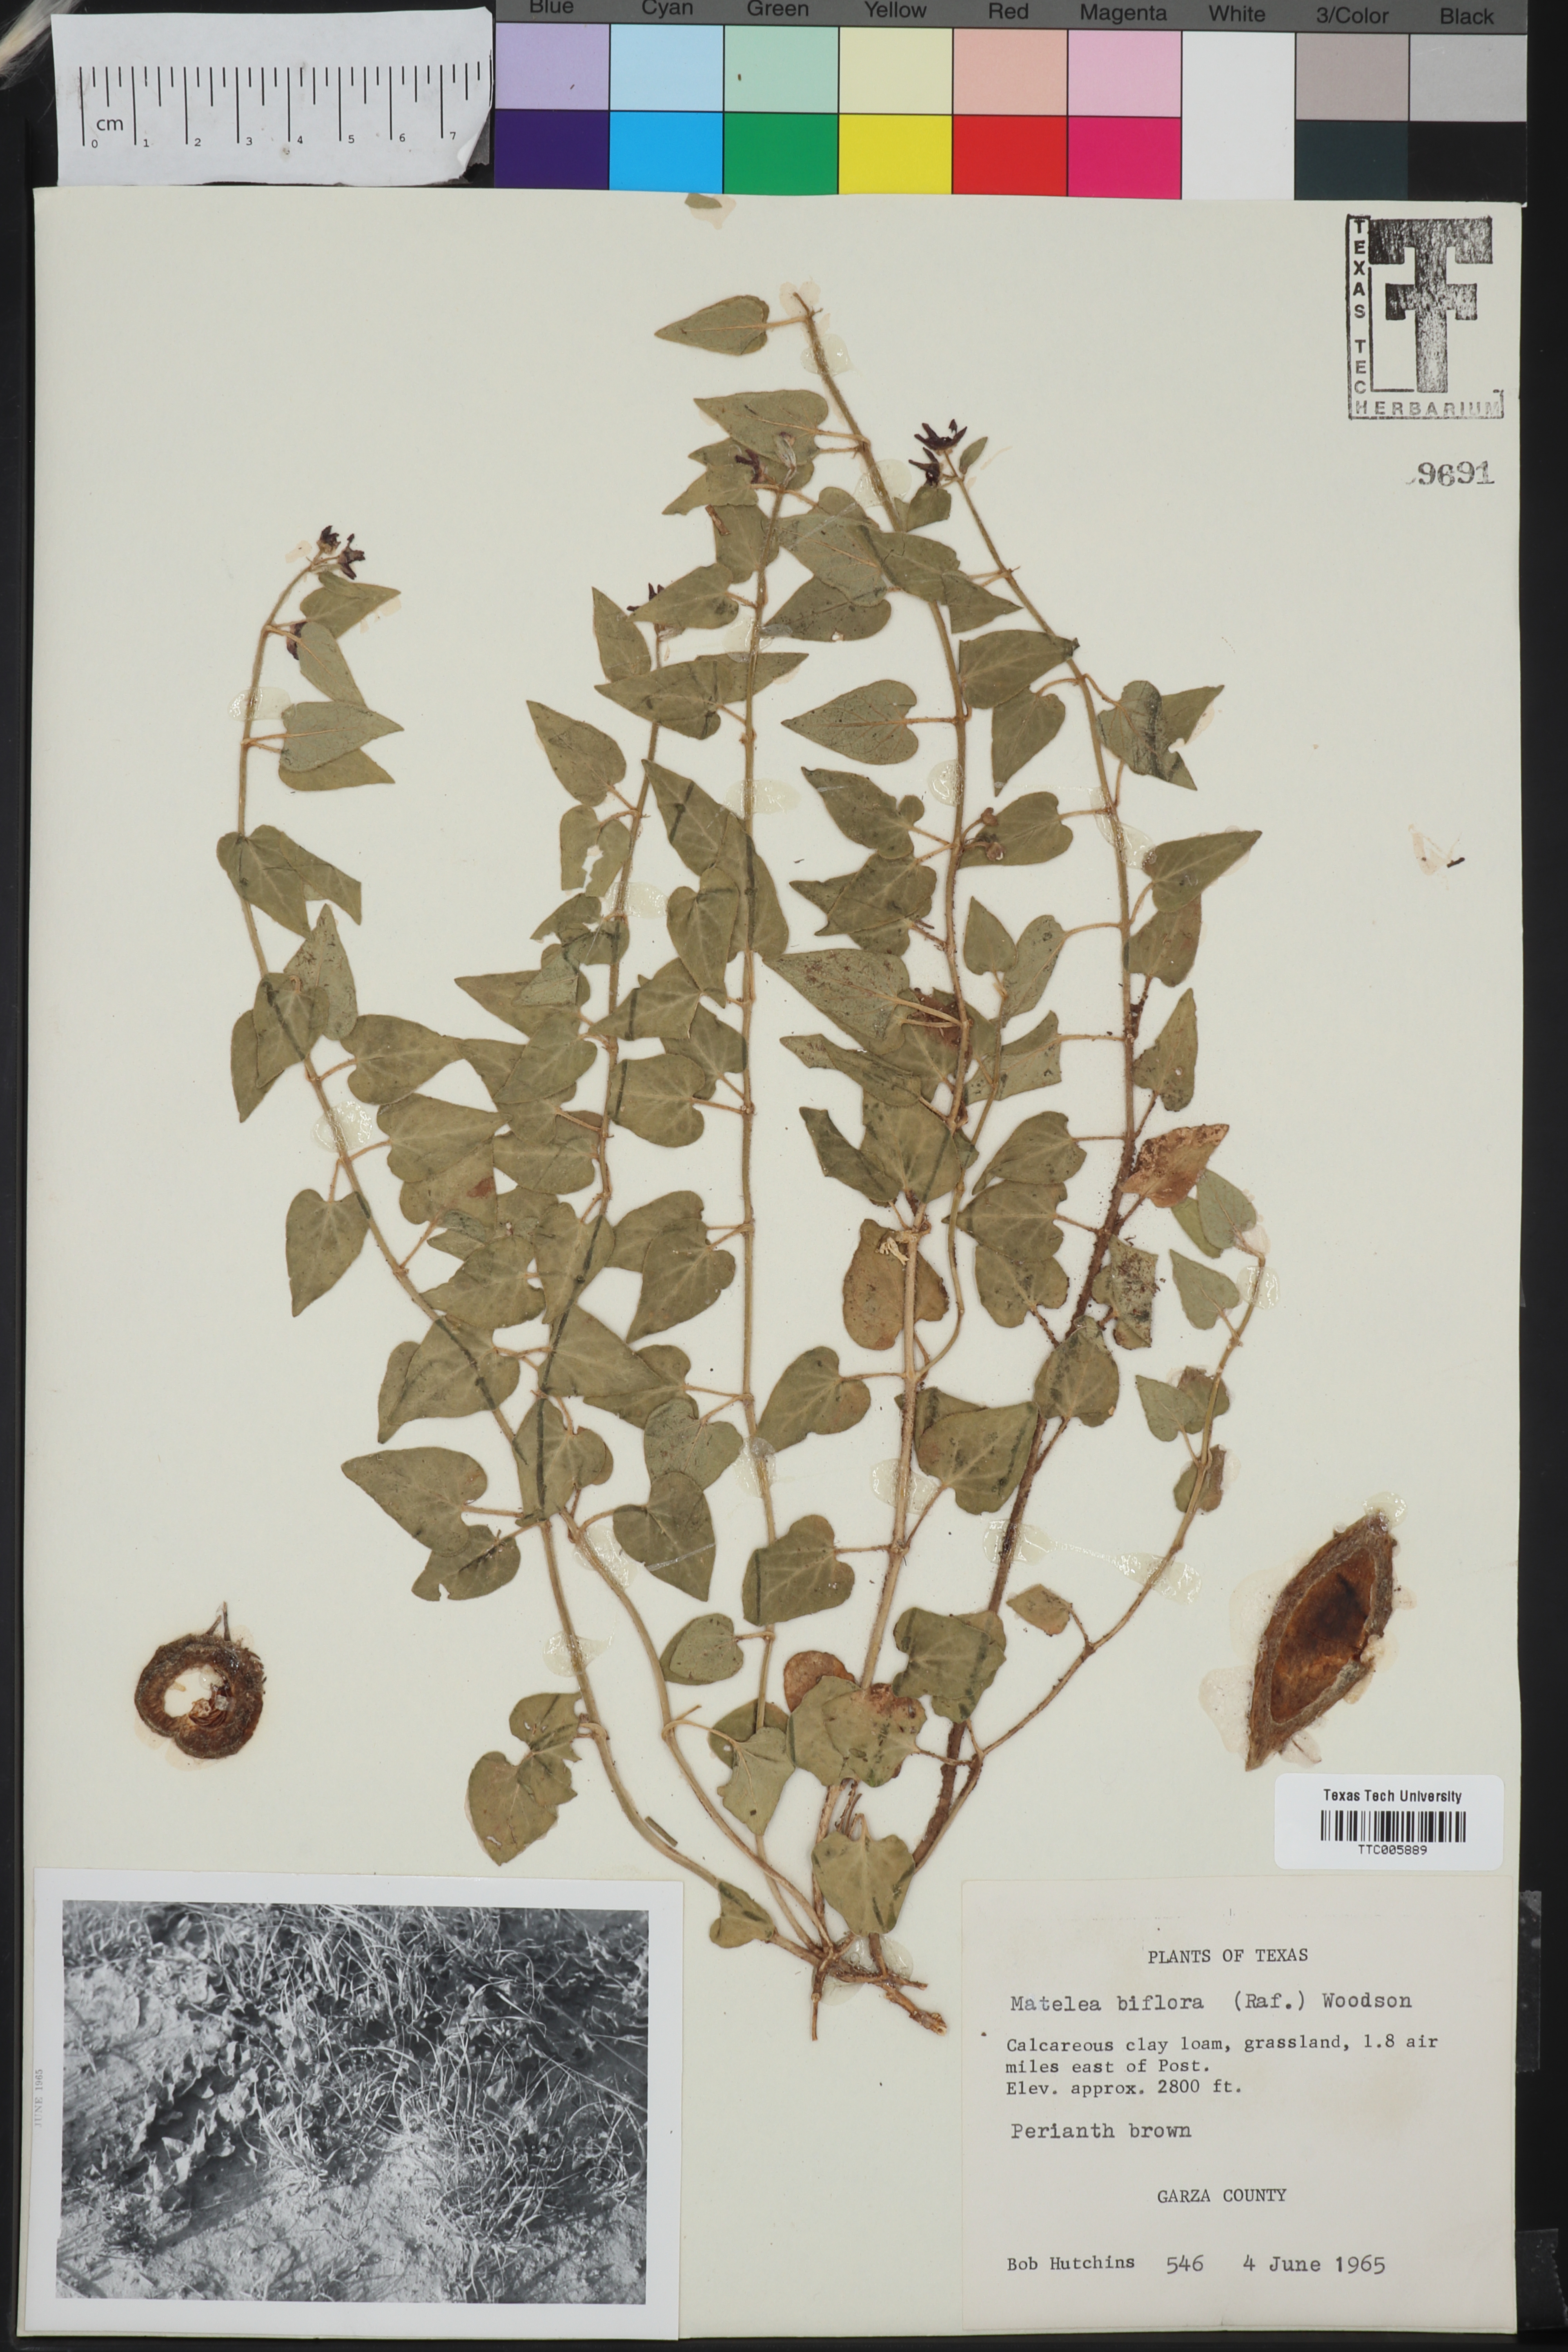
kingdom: Plantae
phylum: Tracheophyta
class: Magnoliopsida
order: Gentianales
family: Apocynaceae
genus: Chthamalia
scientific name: Chthamalia biflora
